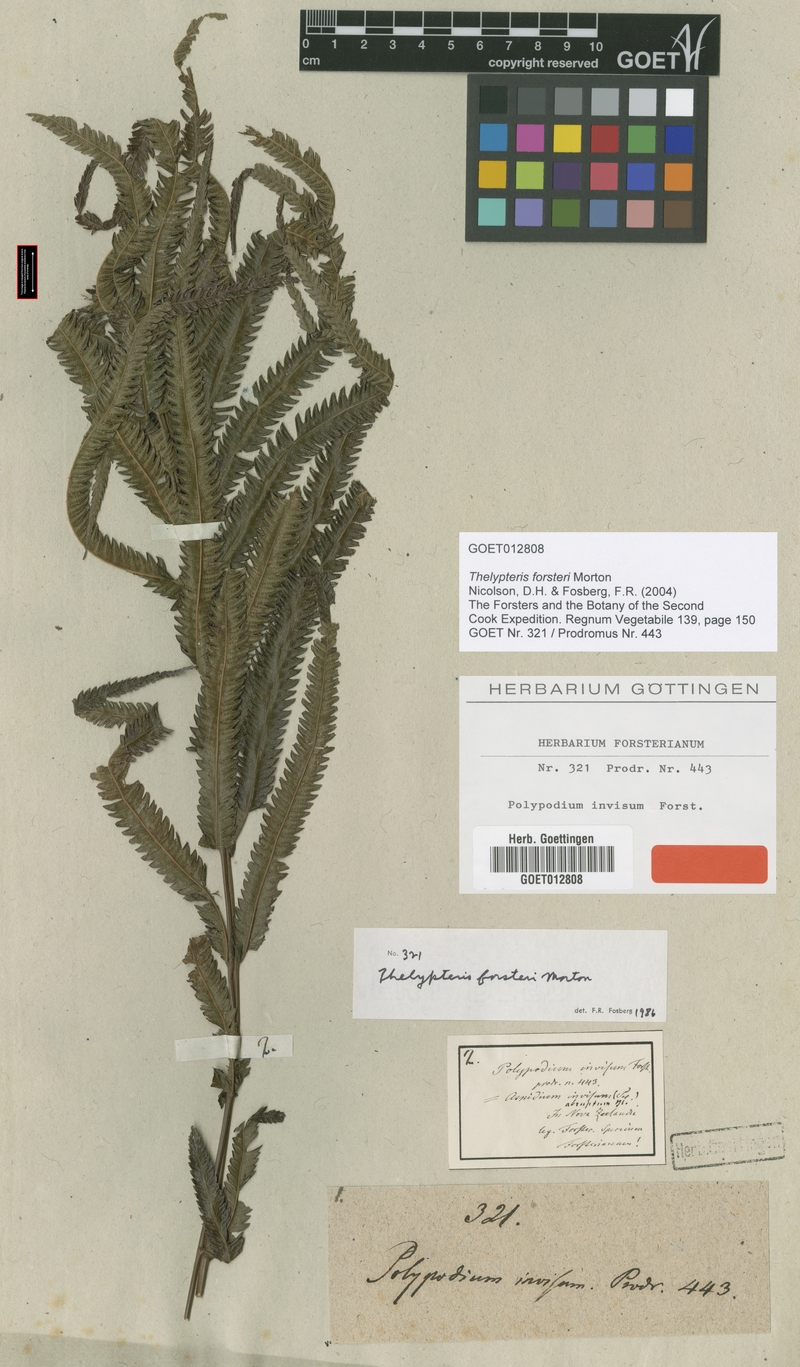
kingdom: Plantae
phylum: Tracheophyta
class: Polypodiopsida
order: Polypodiales
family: Thelypteridaceae
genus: Strophocaulon
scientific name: Strophocaulon invisum
